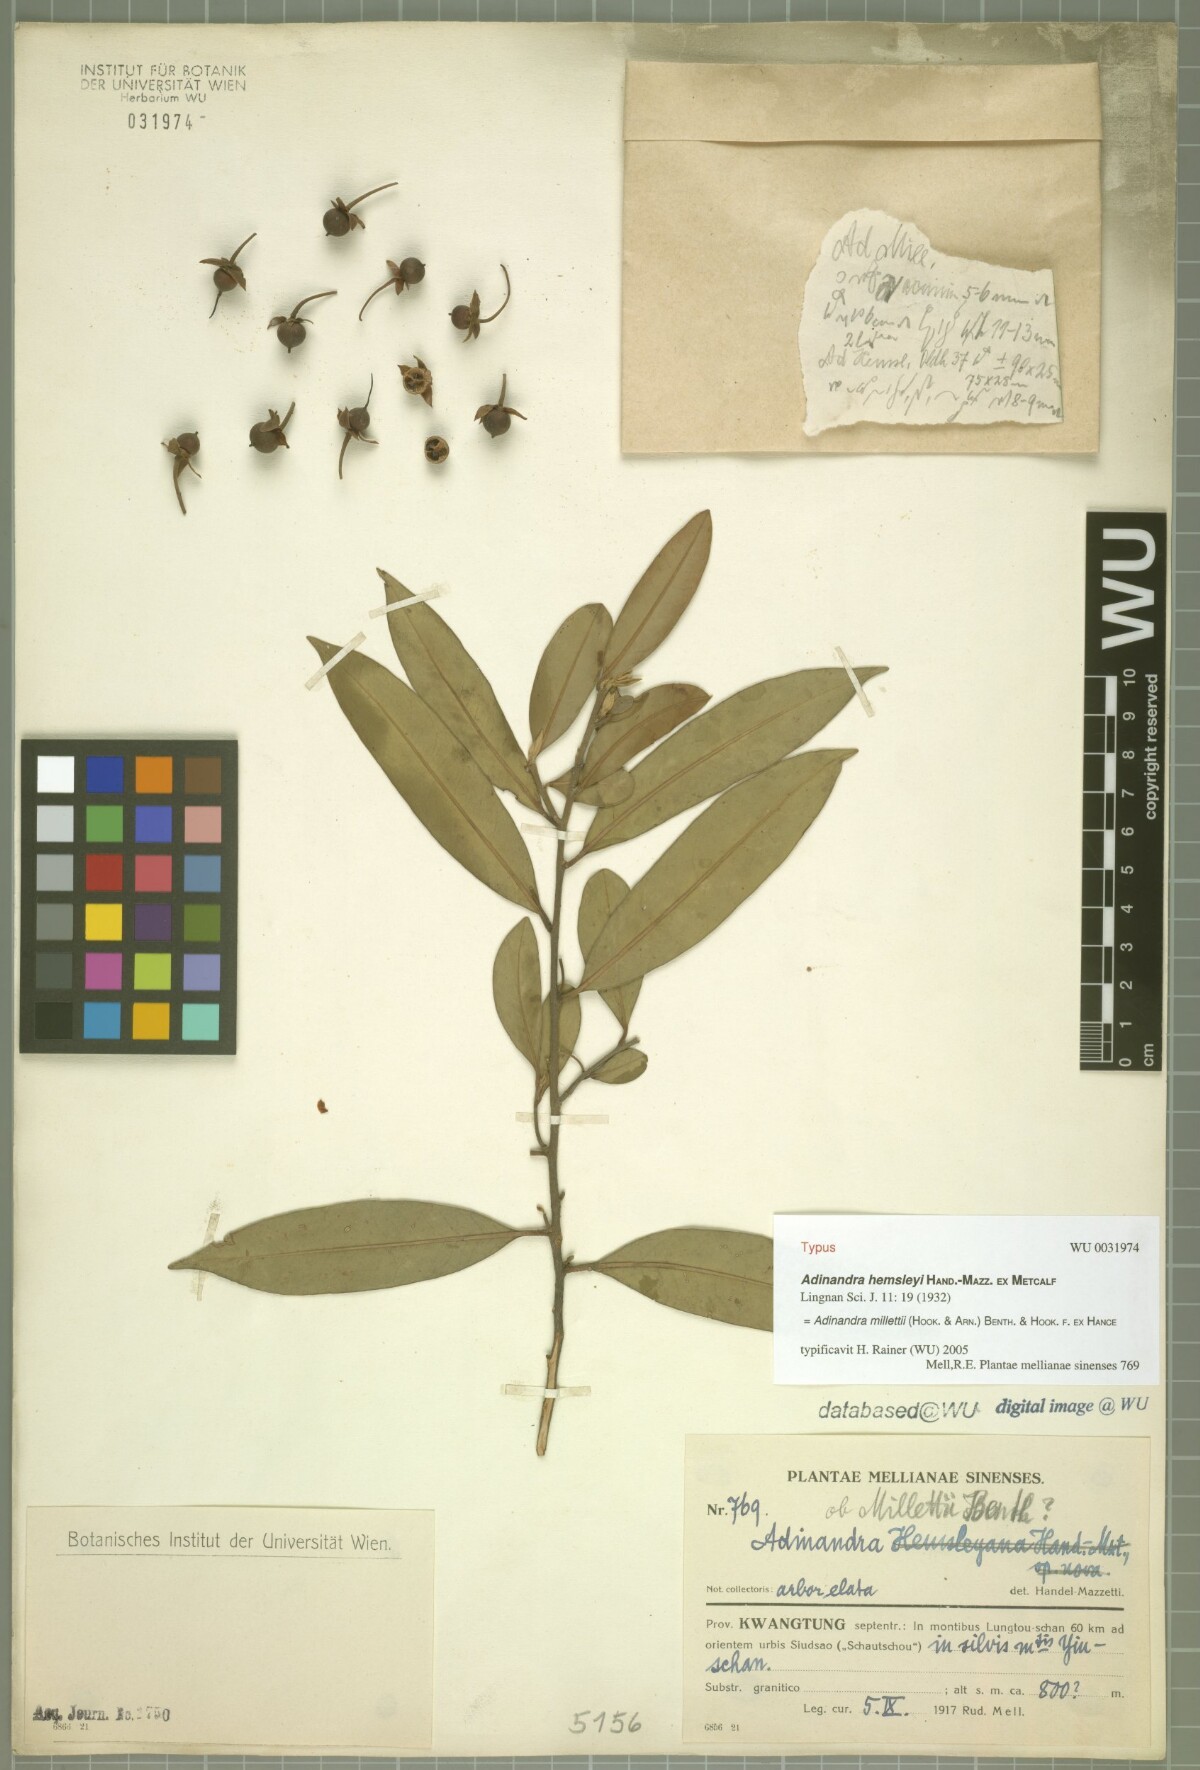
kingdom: Plantae
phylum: Tracheophyta
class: Magnoliopsida
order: Ericales
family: Pentaphylacaceae
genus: Adinandra
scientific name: Adinandra millettii
